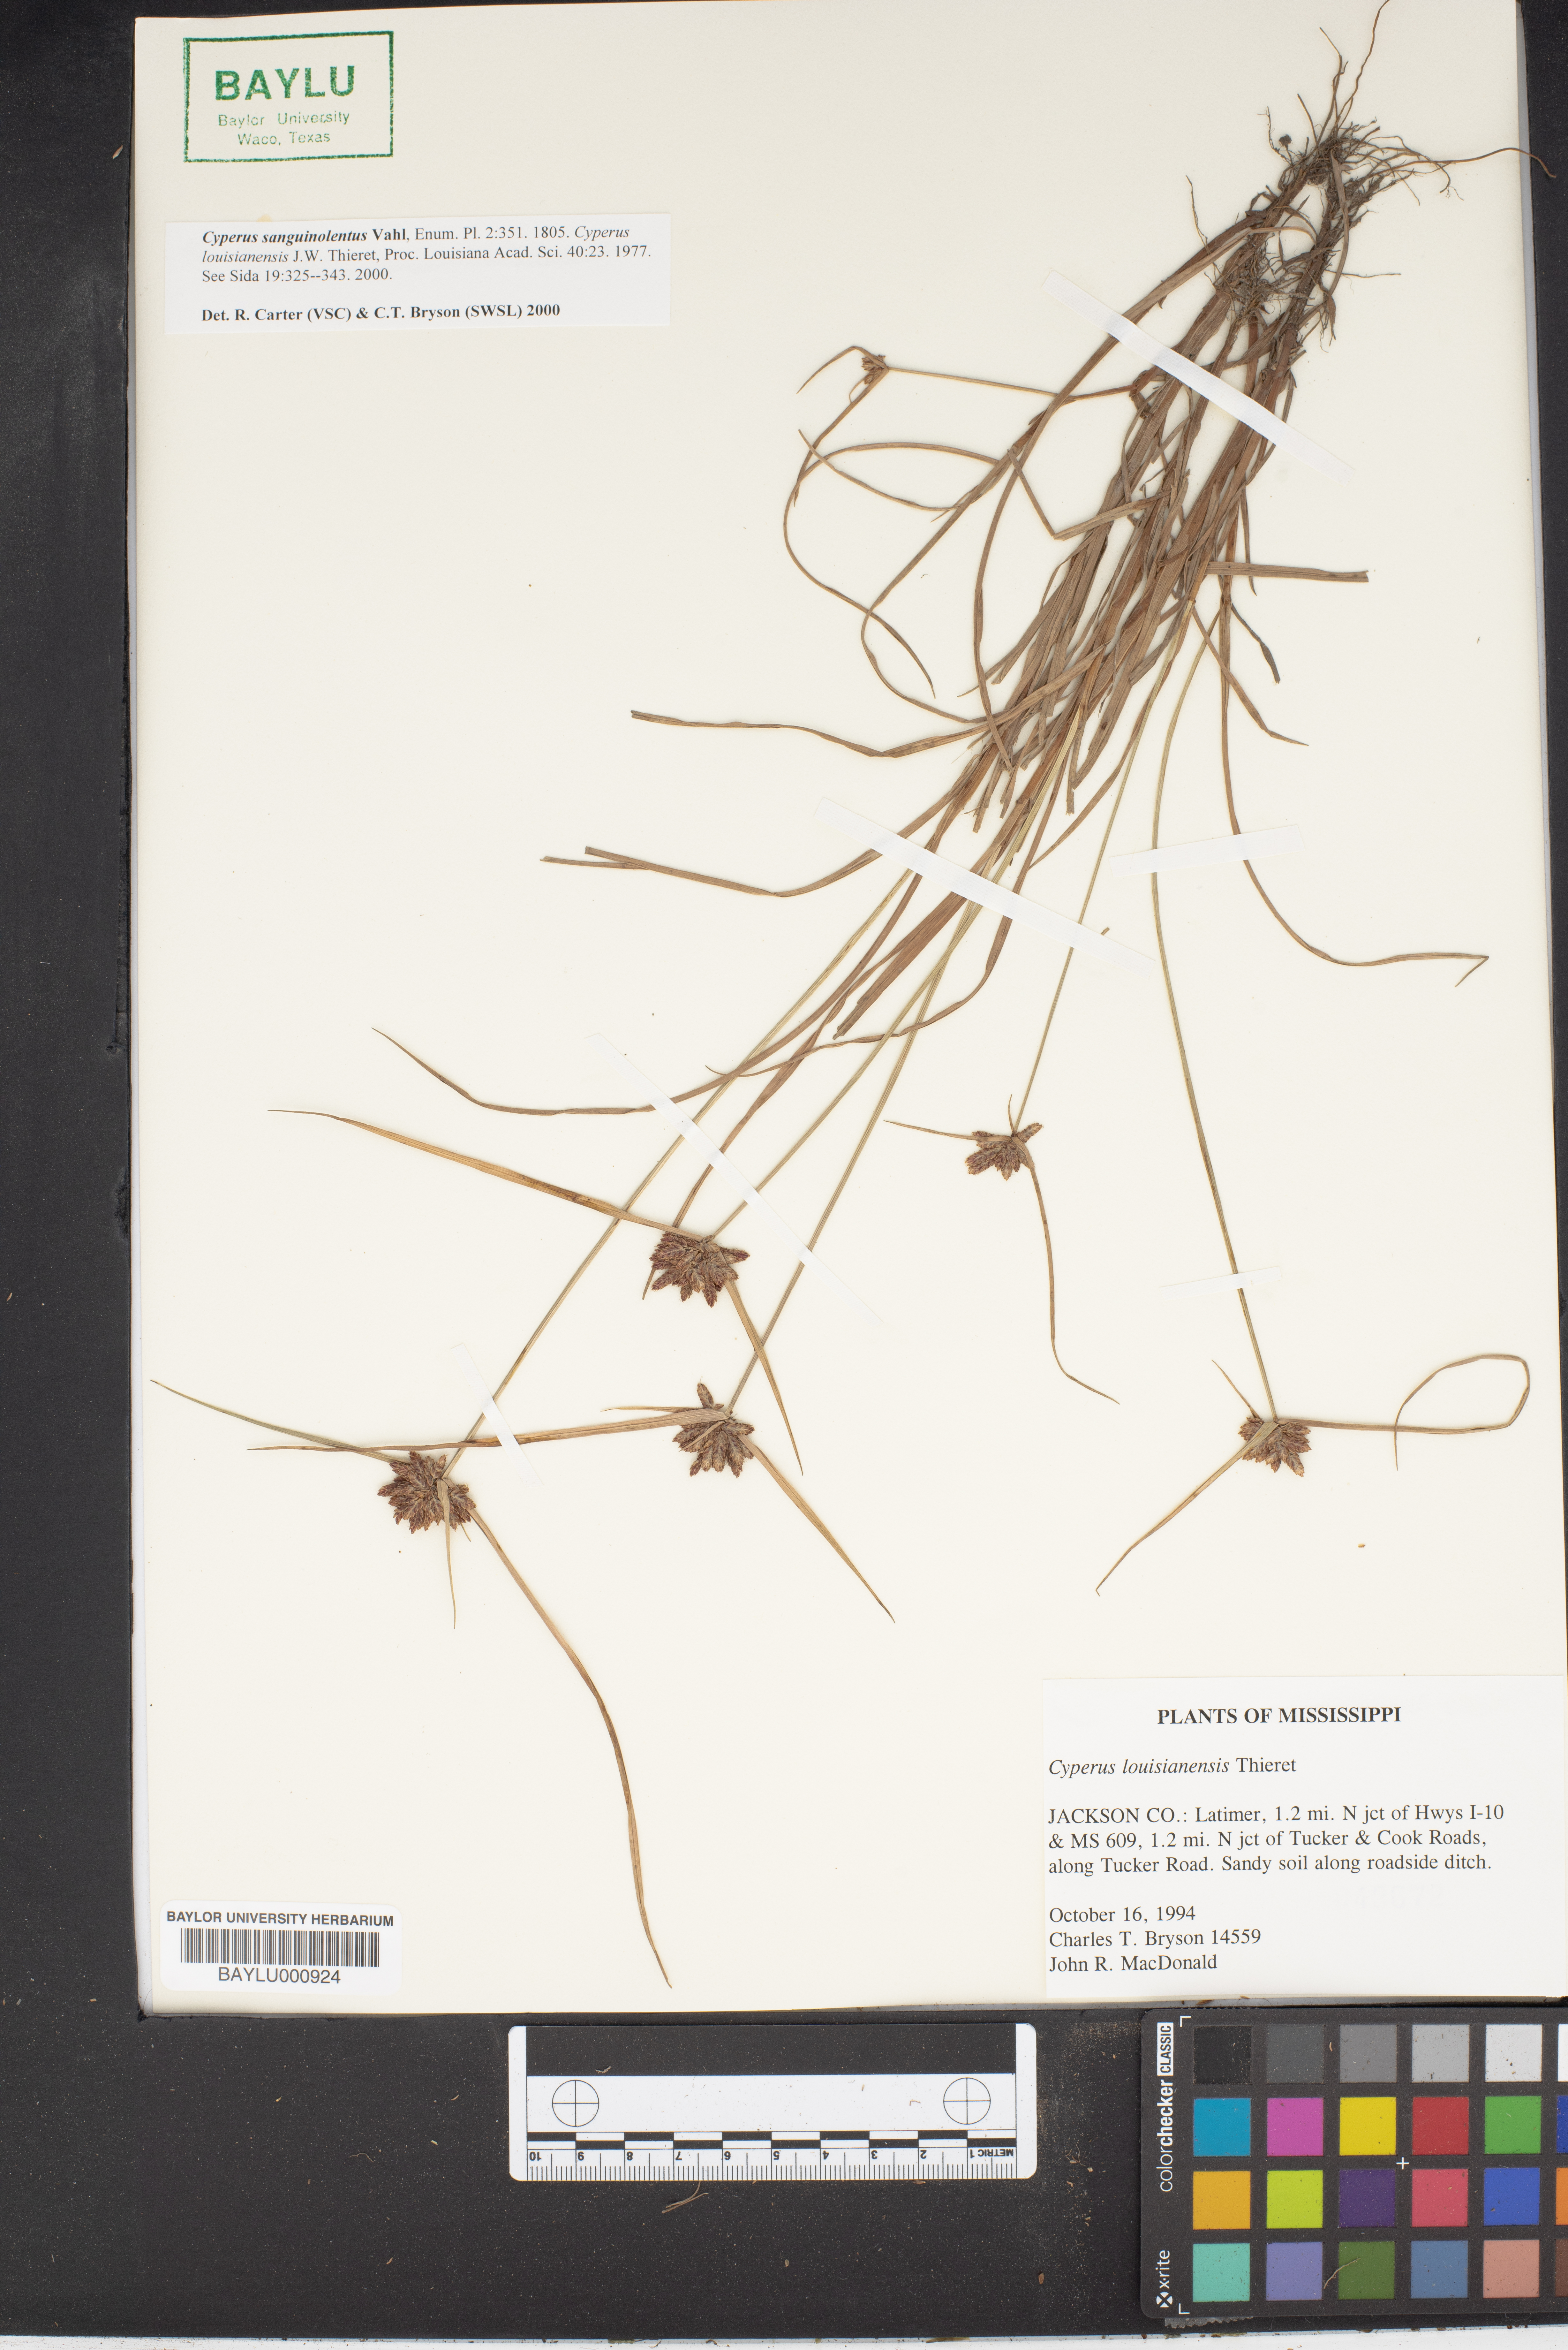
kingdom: Plantae
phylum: Tracheophyta
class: Liliopsida
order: Poales
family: Cyperaceae
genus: Cyperus
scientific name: Cyperus sanguinolentus
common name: Purpleglume flatsedge
